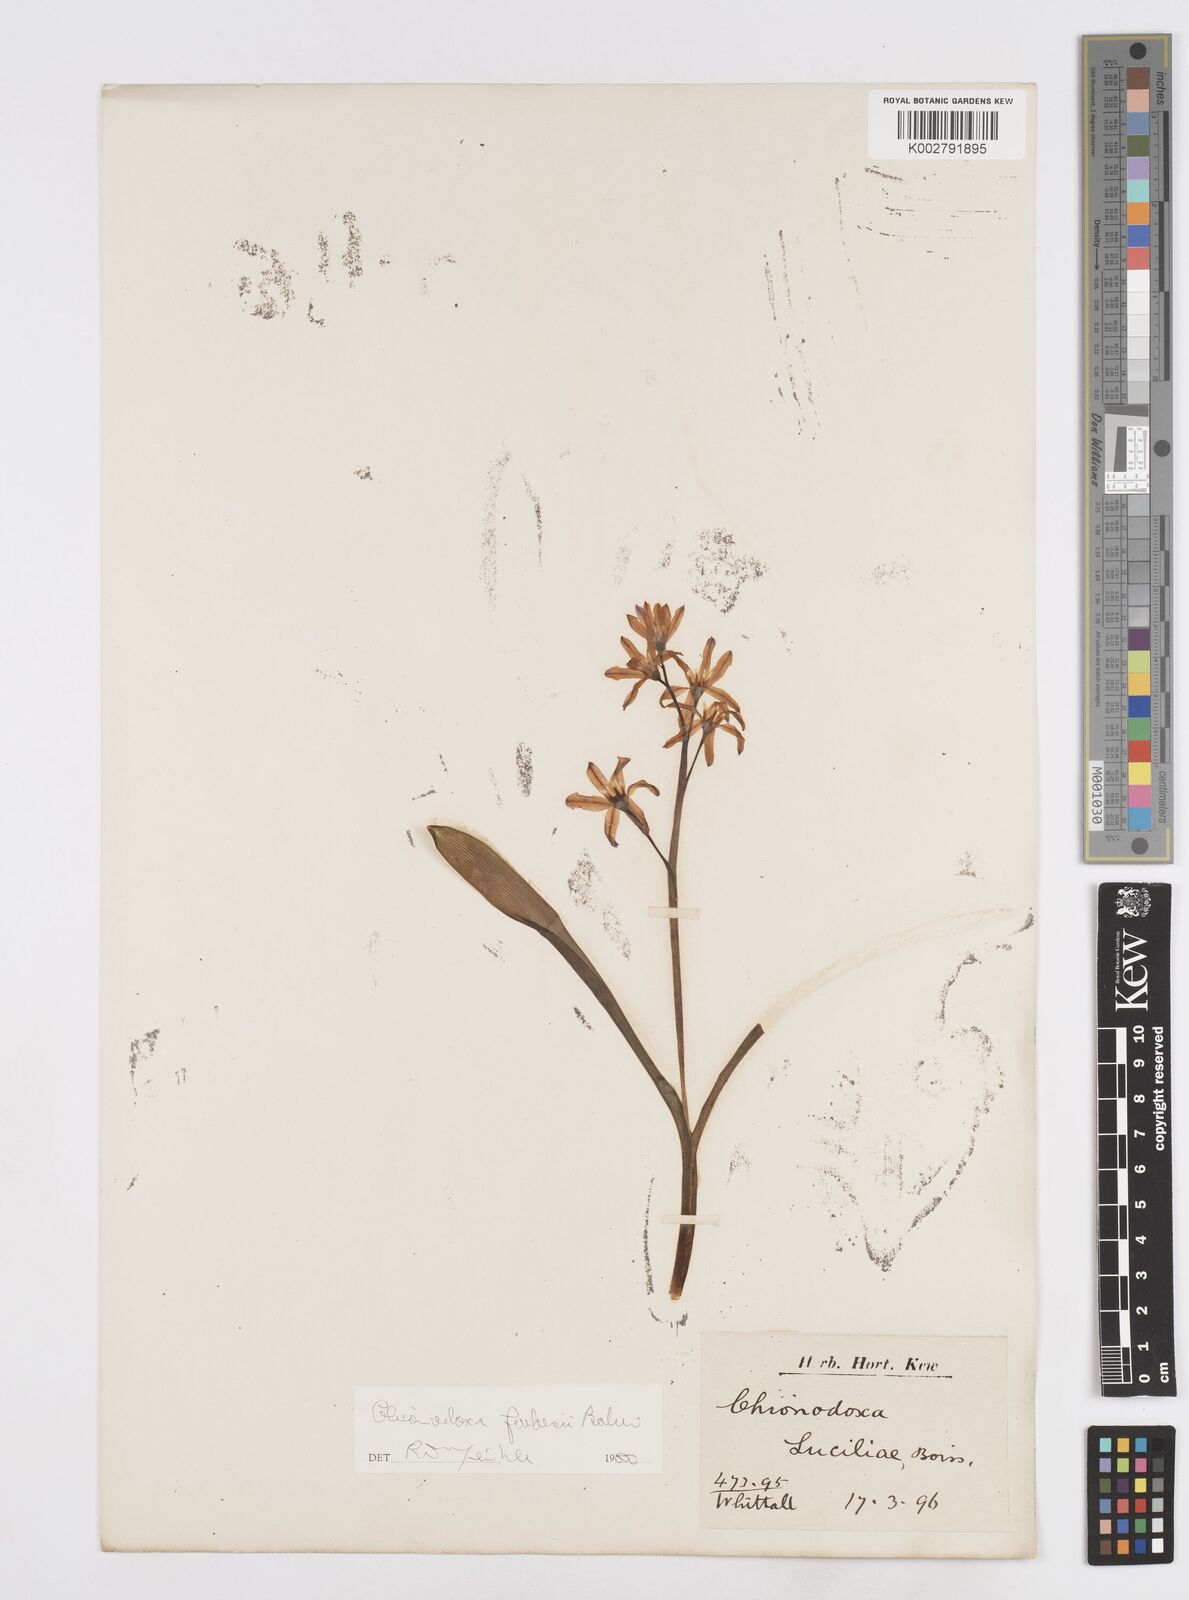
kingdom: Plantae
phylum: Tracheophyta
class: Liliopsida
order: Asparagales
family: Asparagaceae
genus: Scilla
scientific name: Scilla forbesii
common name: Glory-of-the-snow
